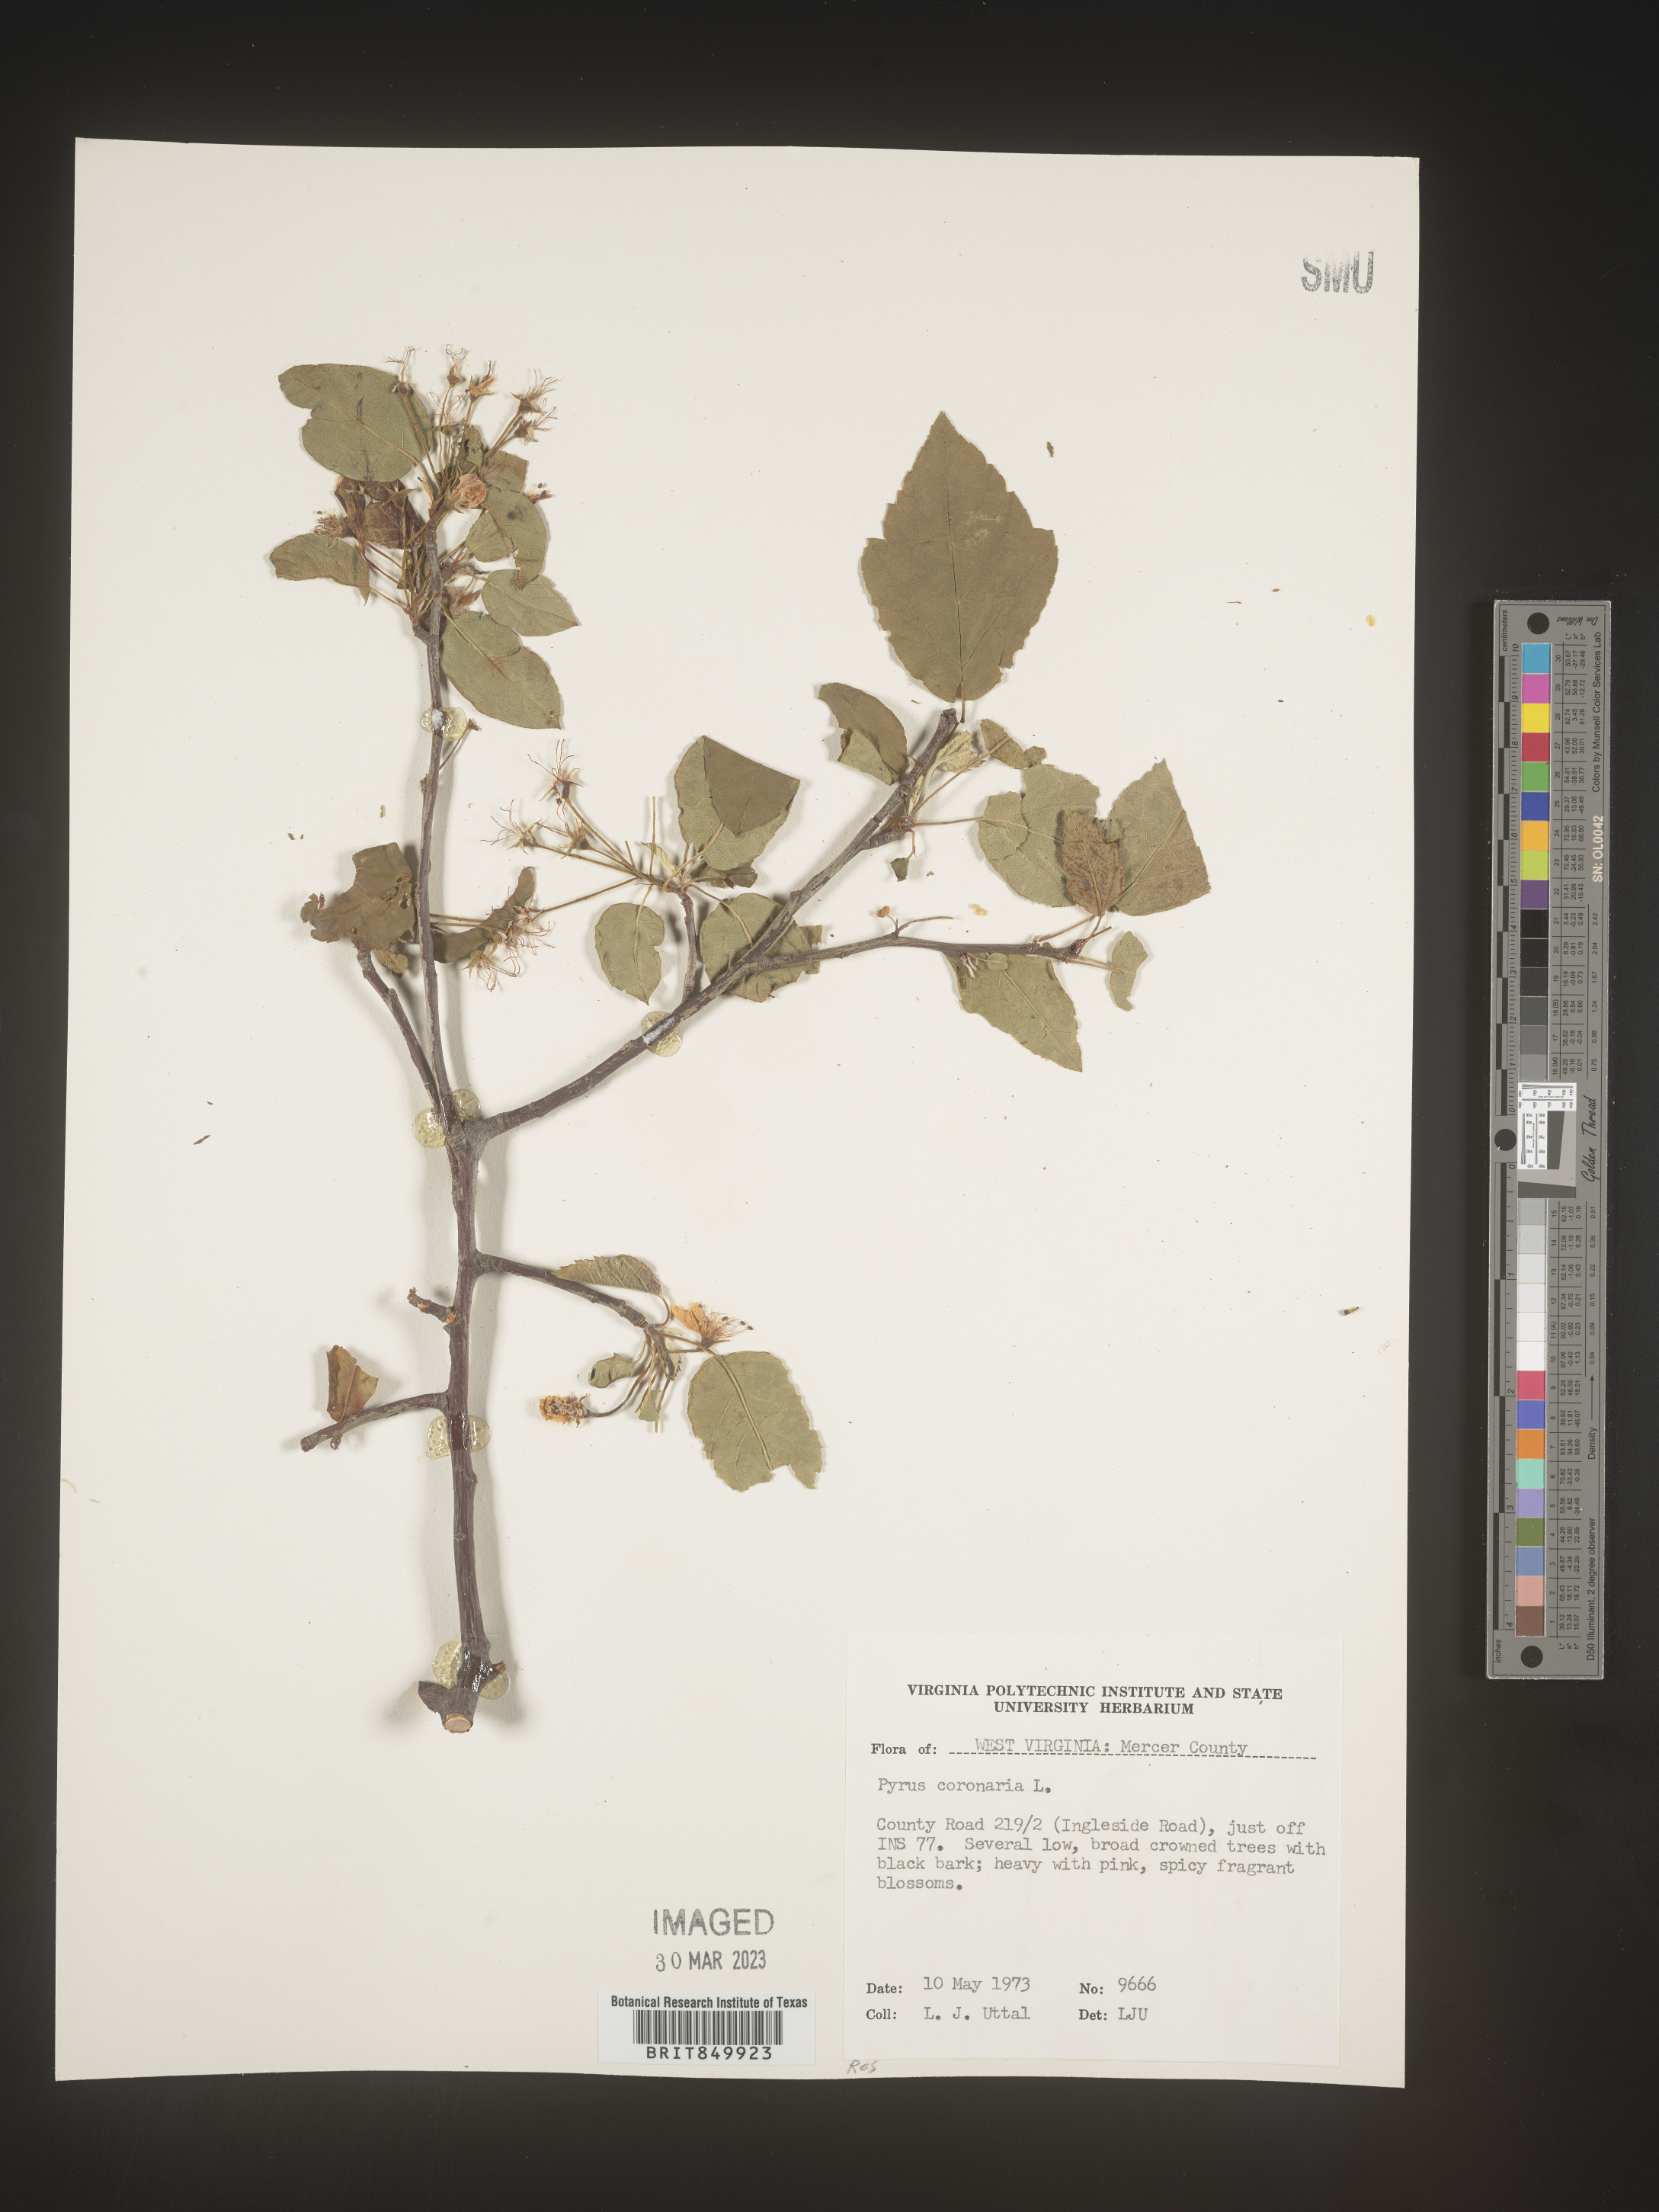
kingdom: Plantae
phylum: Tracheophyta
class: Magnoliopsida
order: Rosales
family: Rosaceae
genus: Pyrus
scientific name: Pyrus
